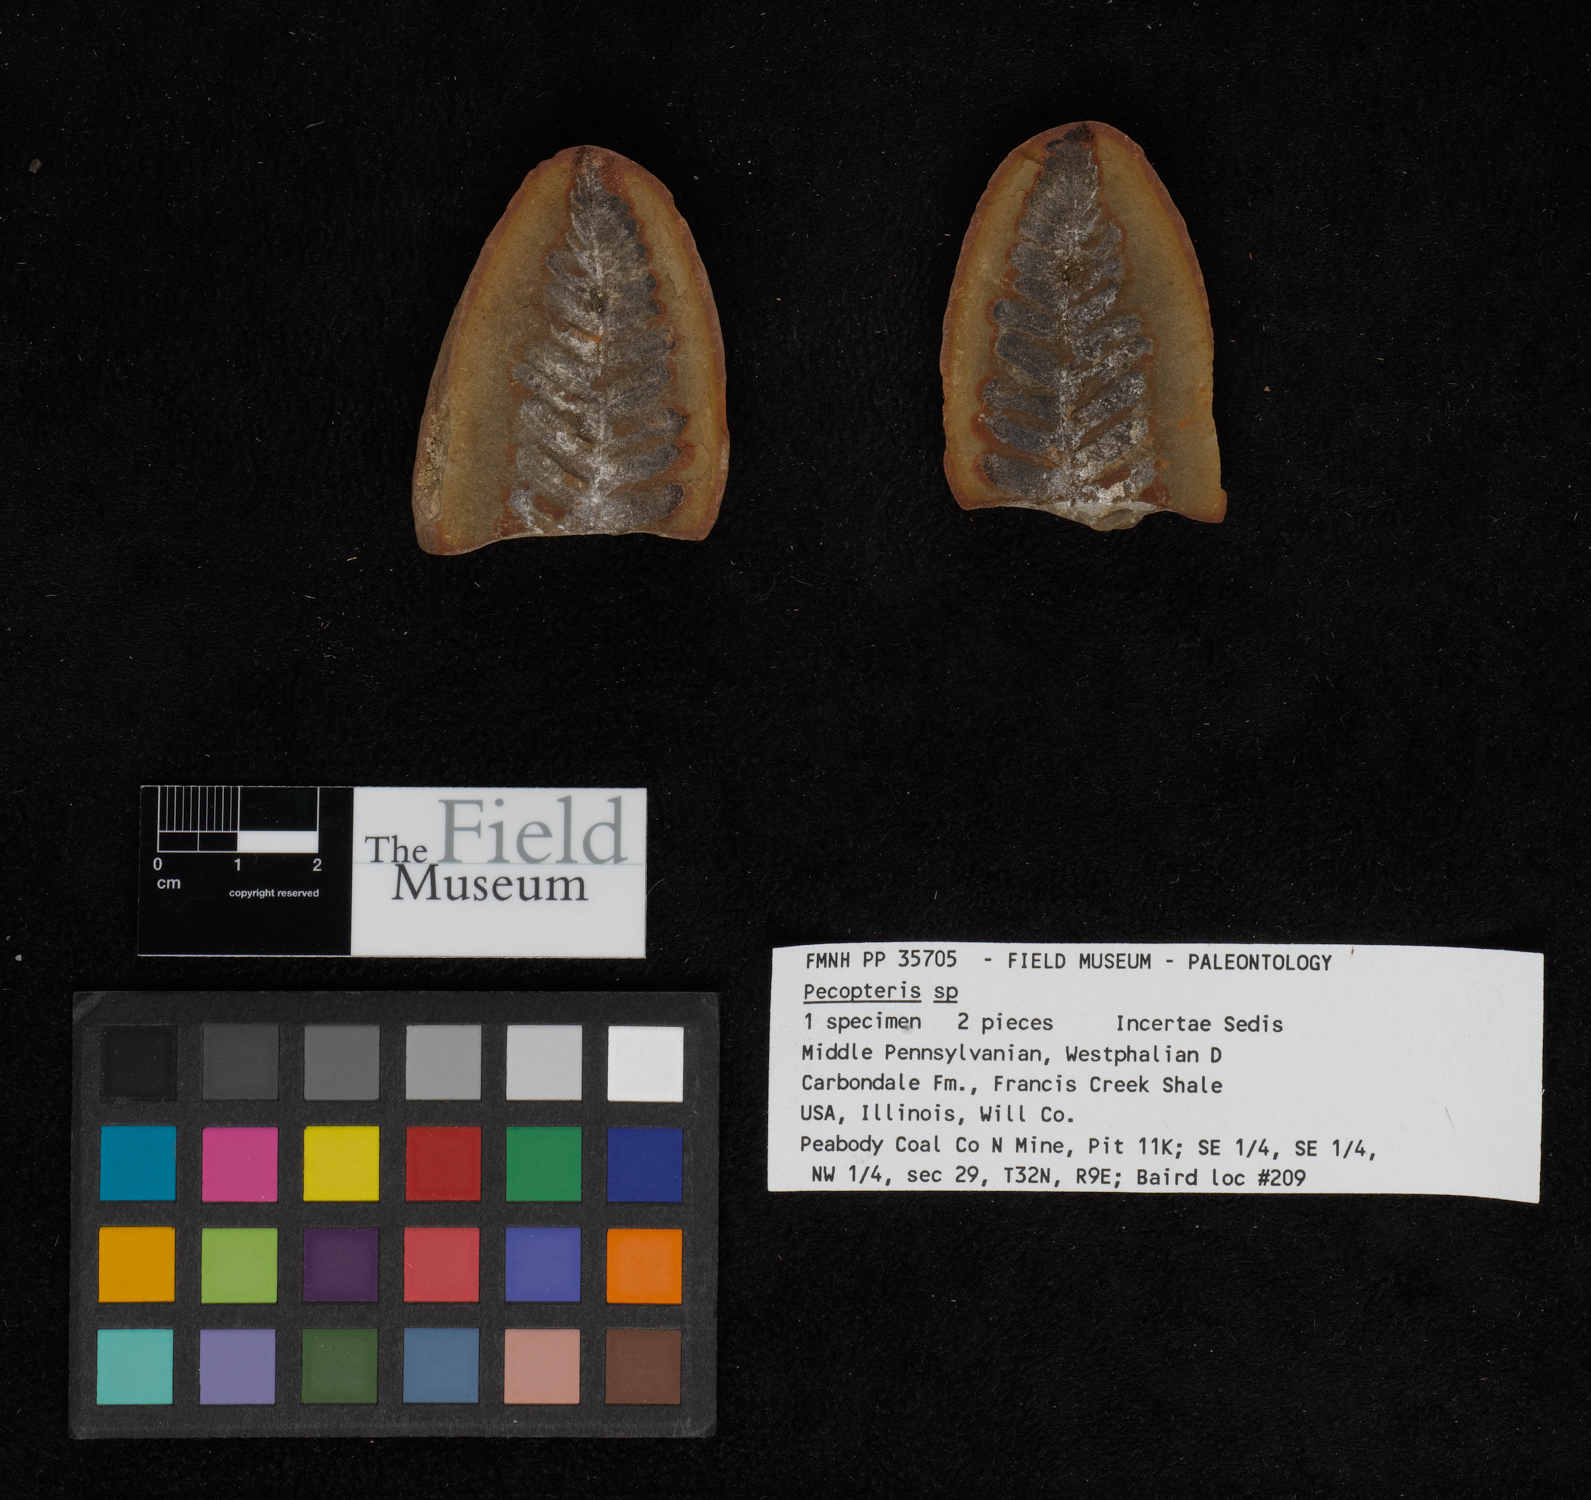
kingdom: Plantae
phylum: Tracheophyta
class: Polypodiopsida
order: Marattiales
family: Asterothecaceae
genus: Pecopteris
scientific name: Pecopteris
